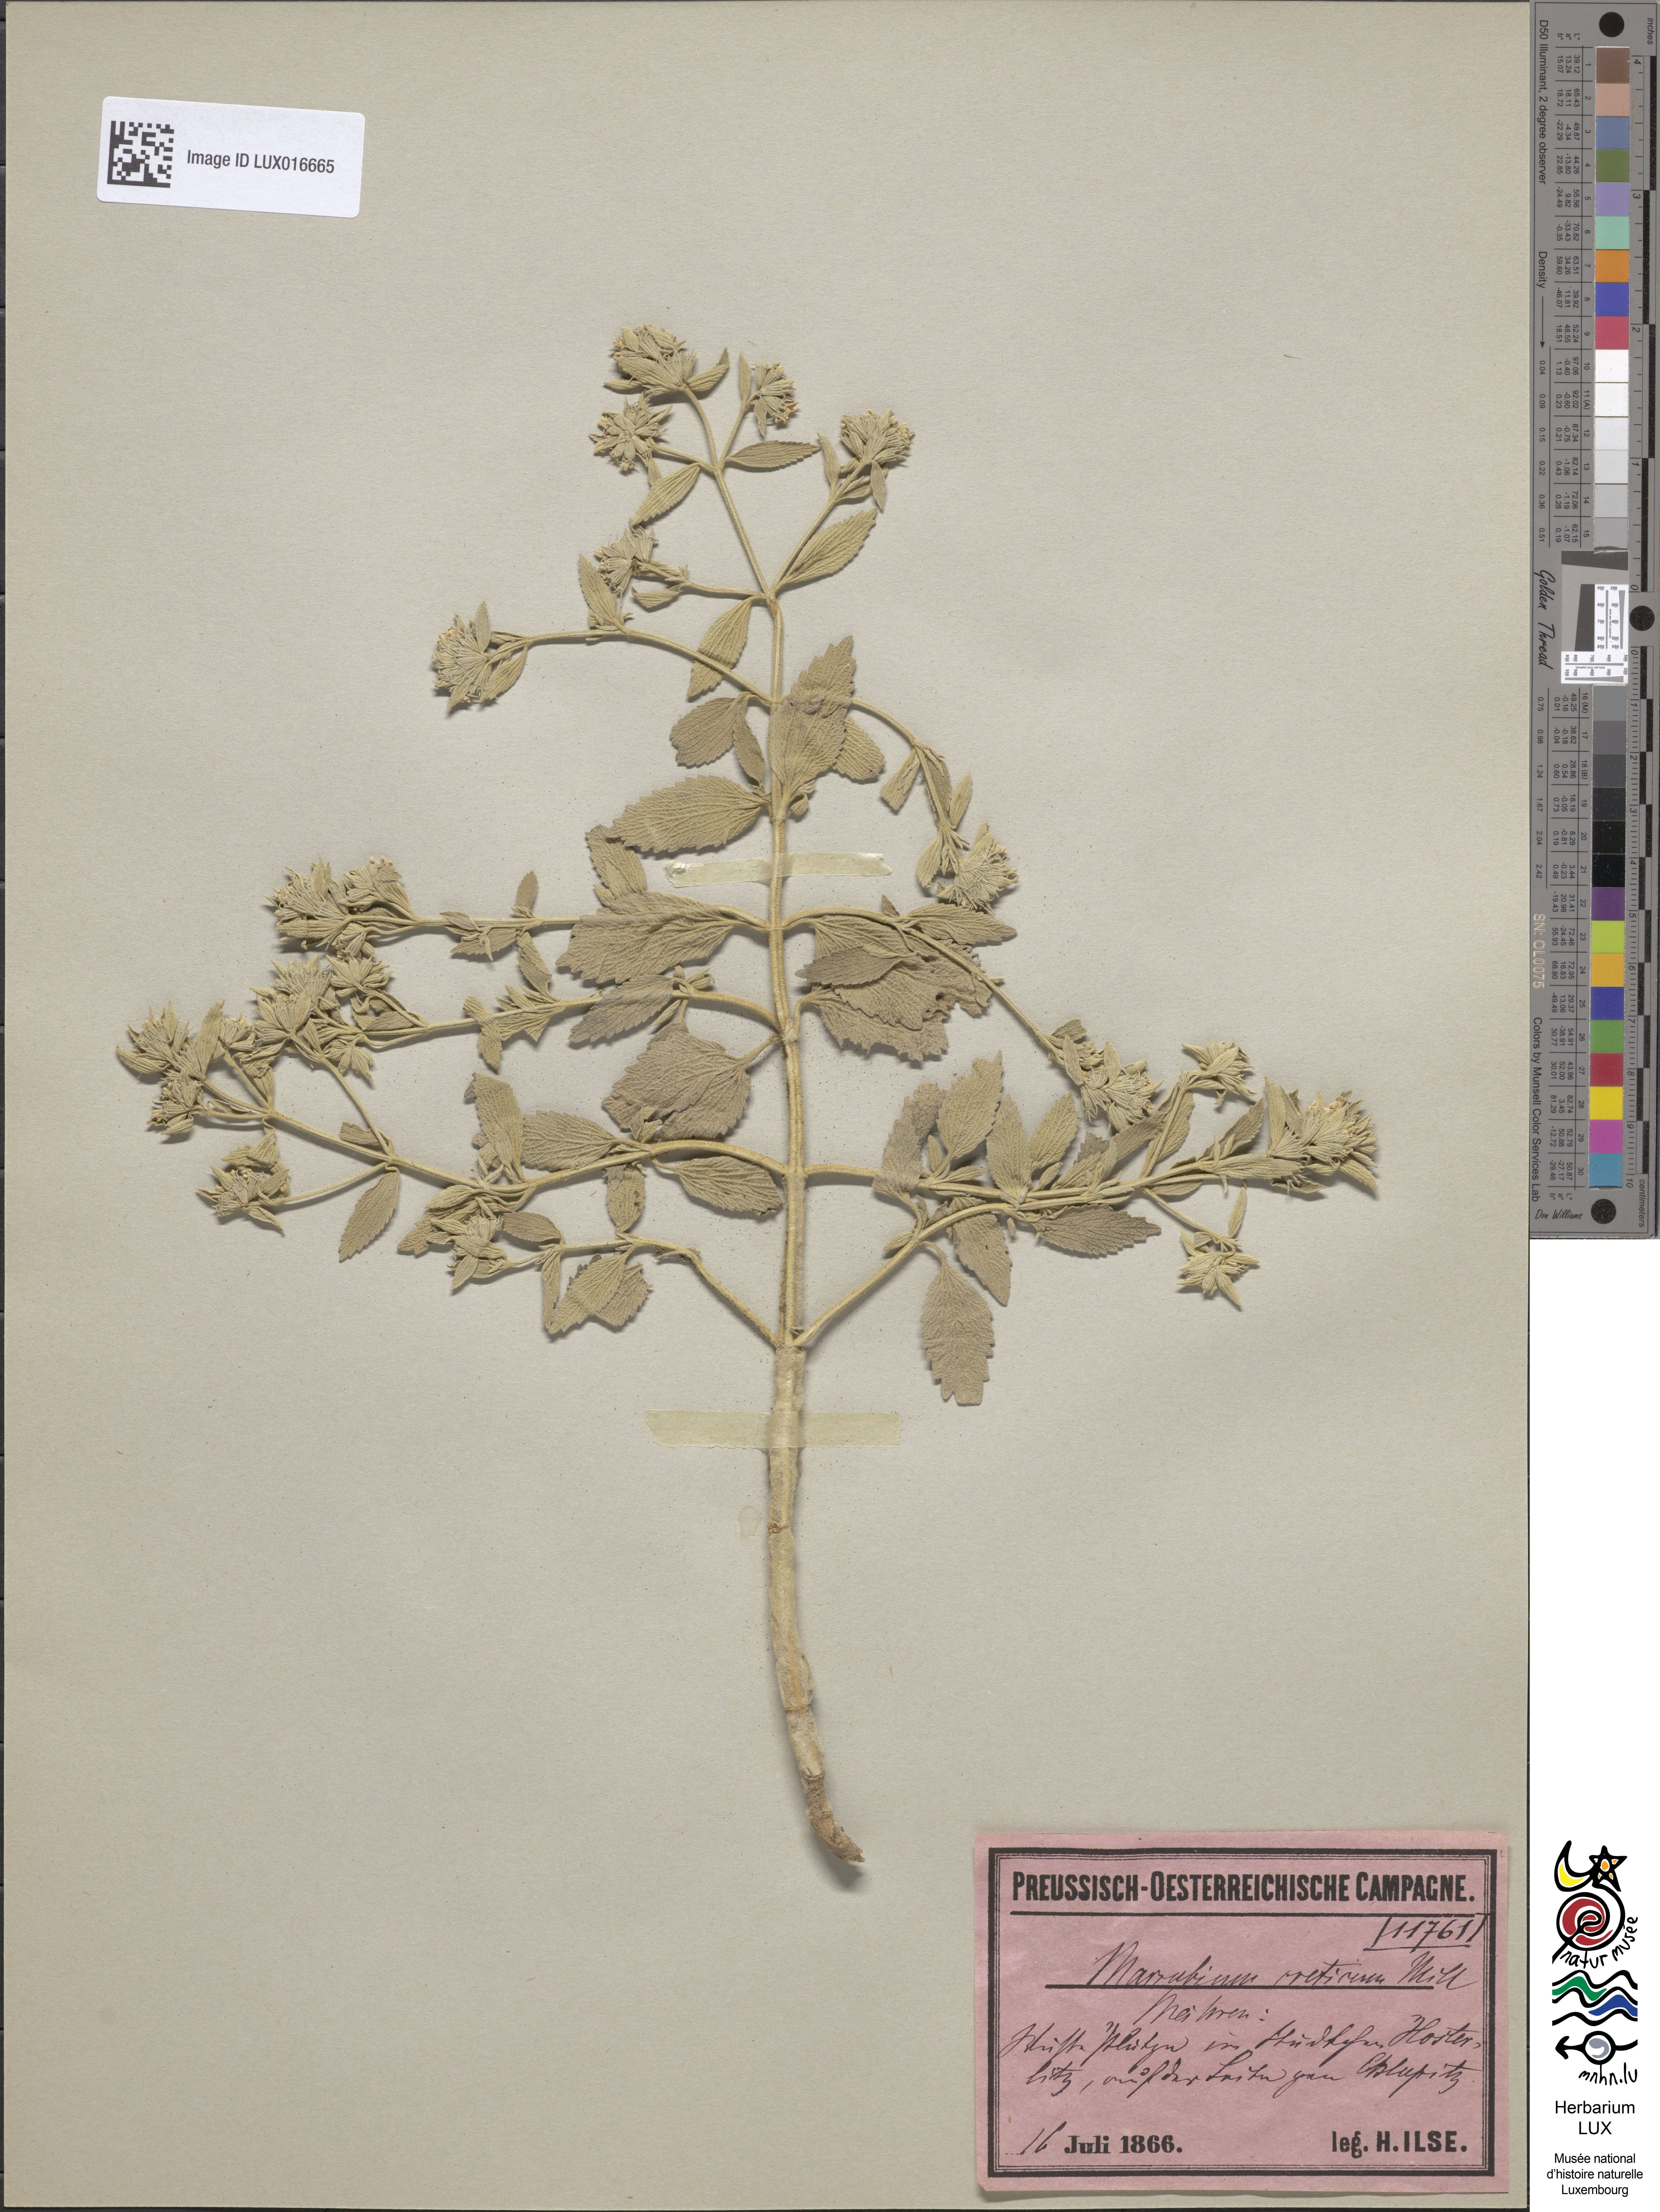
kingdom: Plantae
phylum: Tracheophyta
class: Magnoliopsida
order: Lamiales
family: Lamiaceae
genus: Marrubium
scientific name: Marrubium peregrinum
